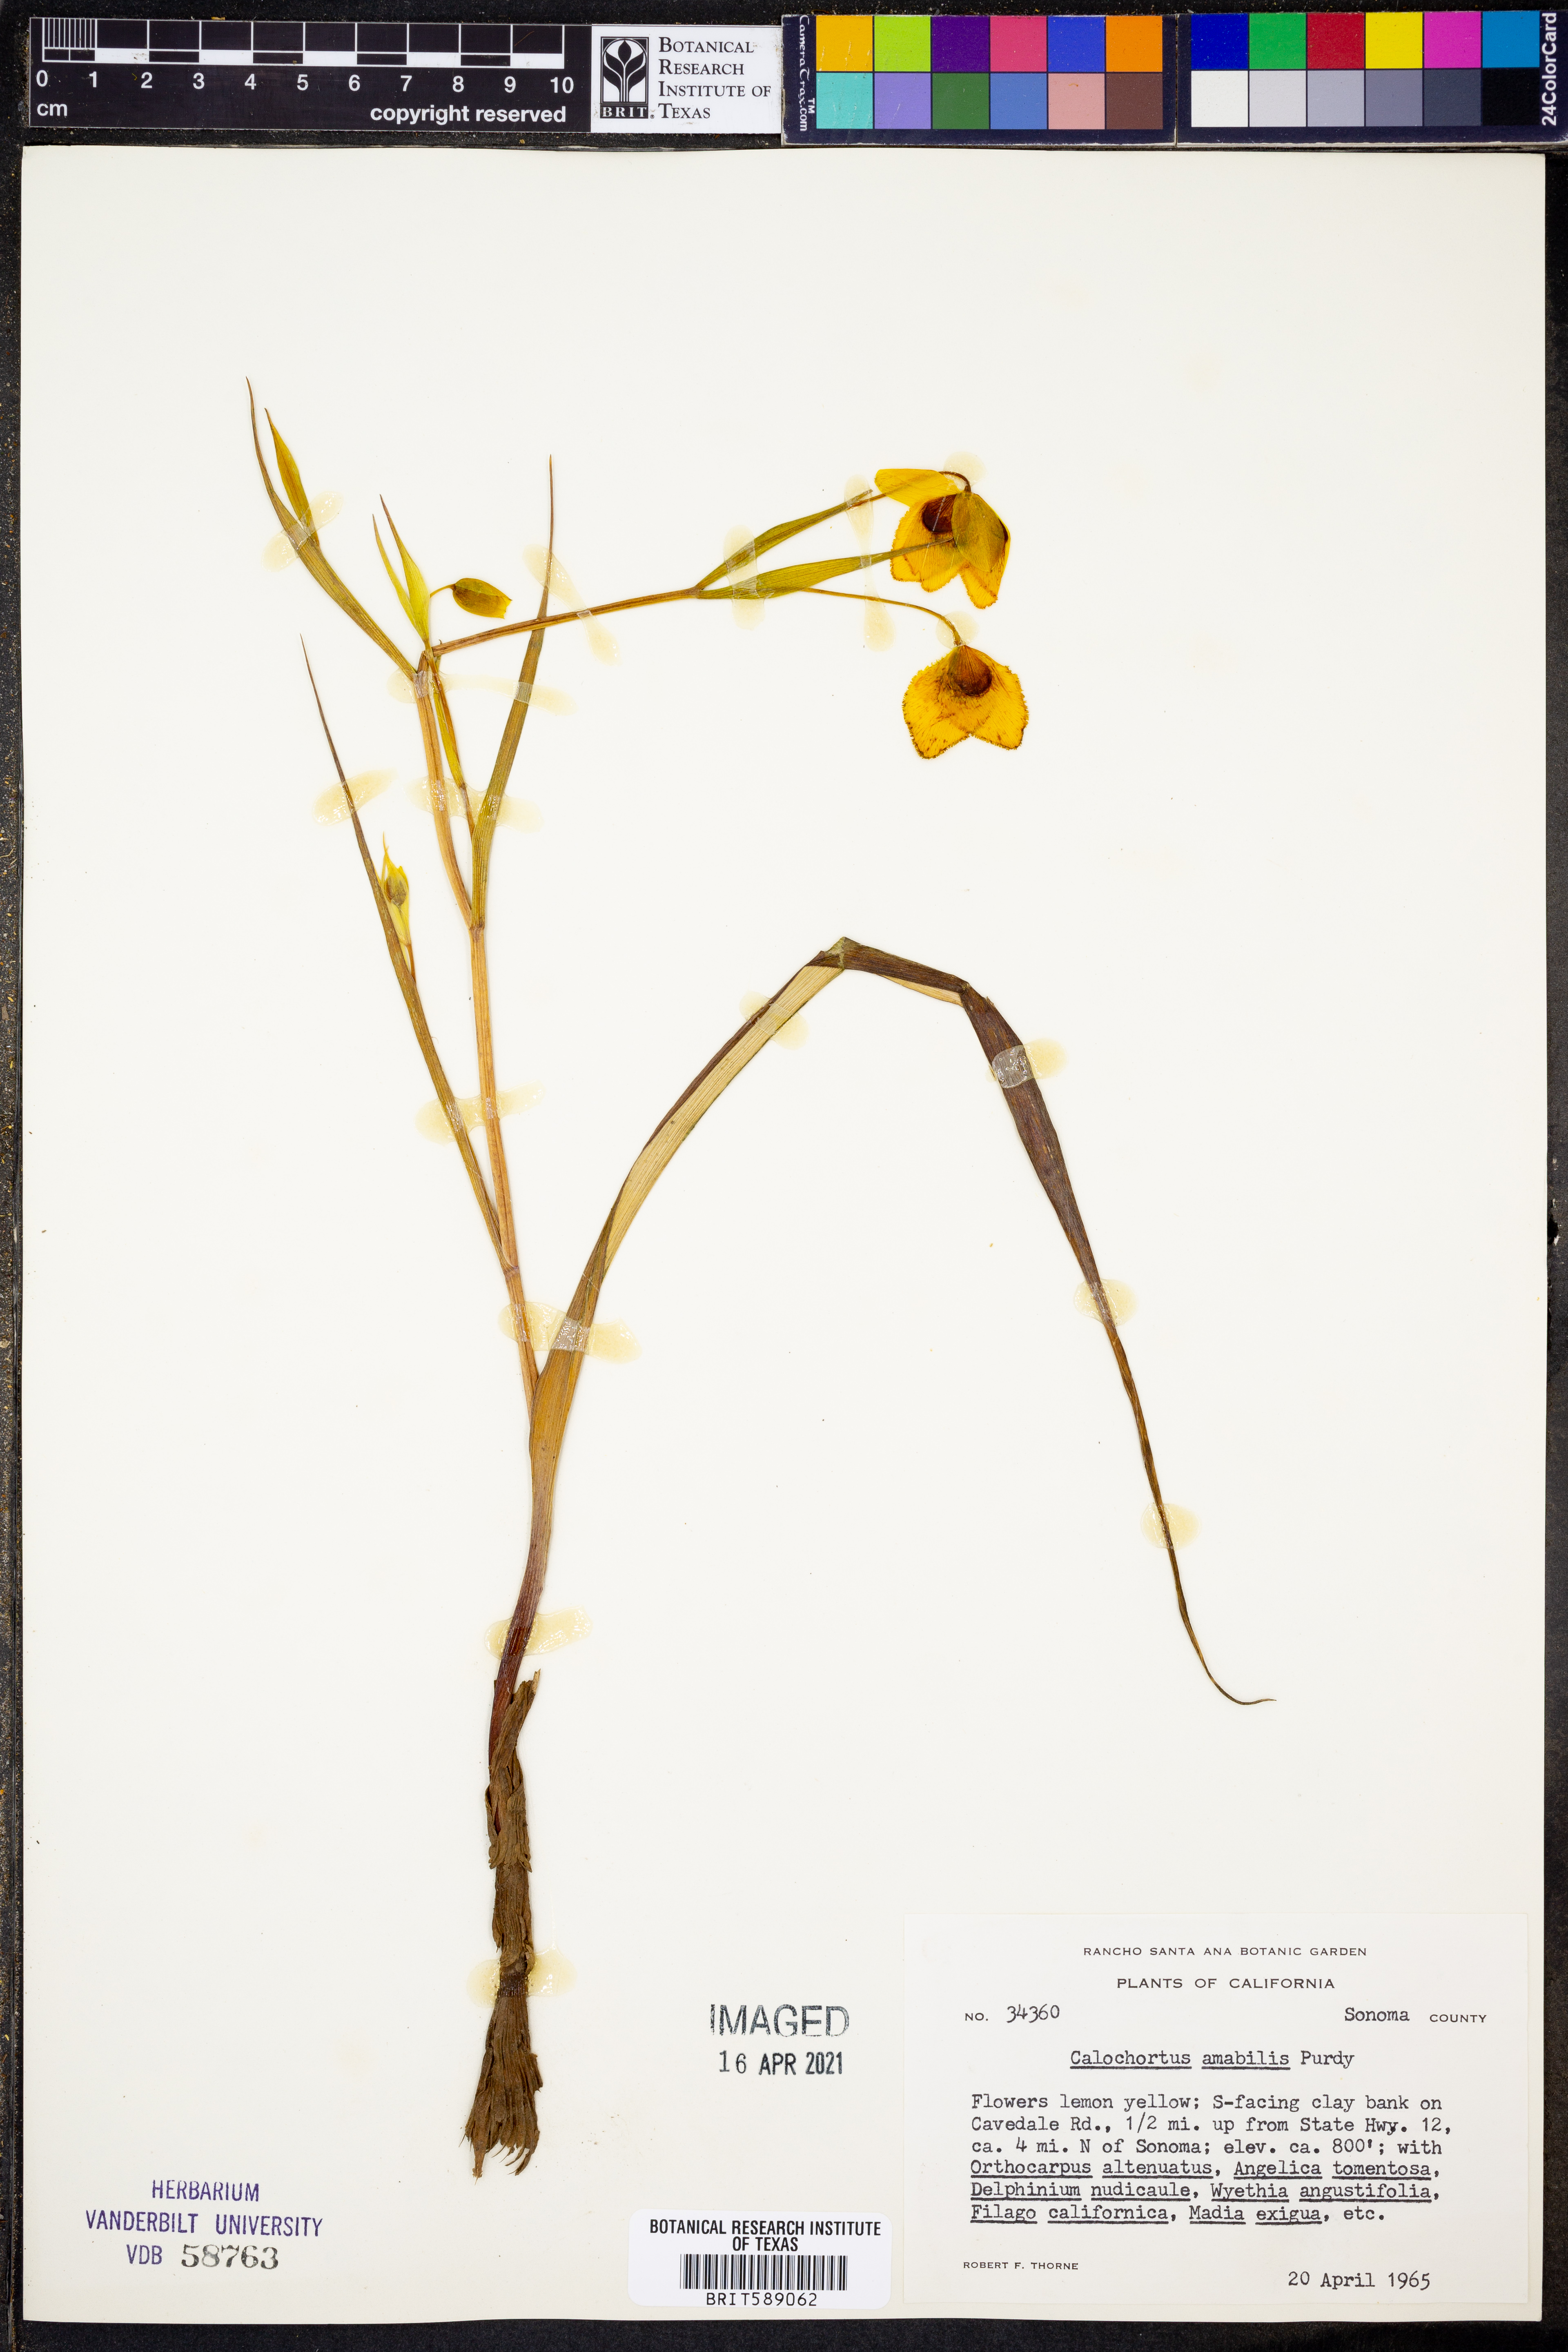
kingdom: Plantae
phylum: Tracheophyta
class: Liliopsida
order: Liliales
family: Liliaceae
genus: Calochortus
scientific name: Calochortus amabilis
